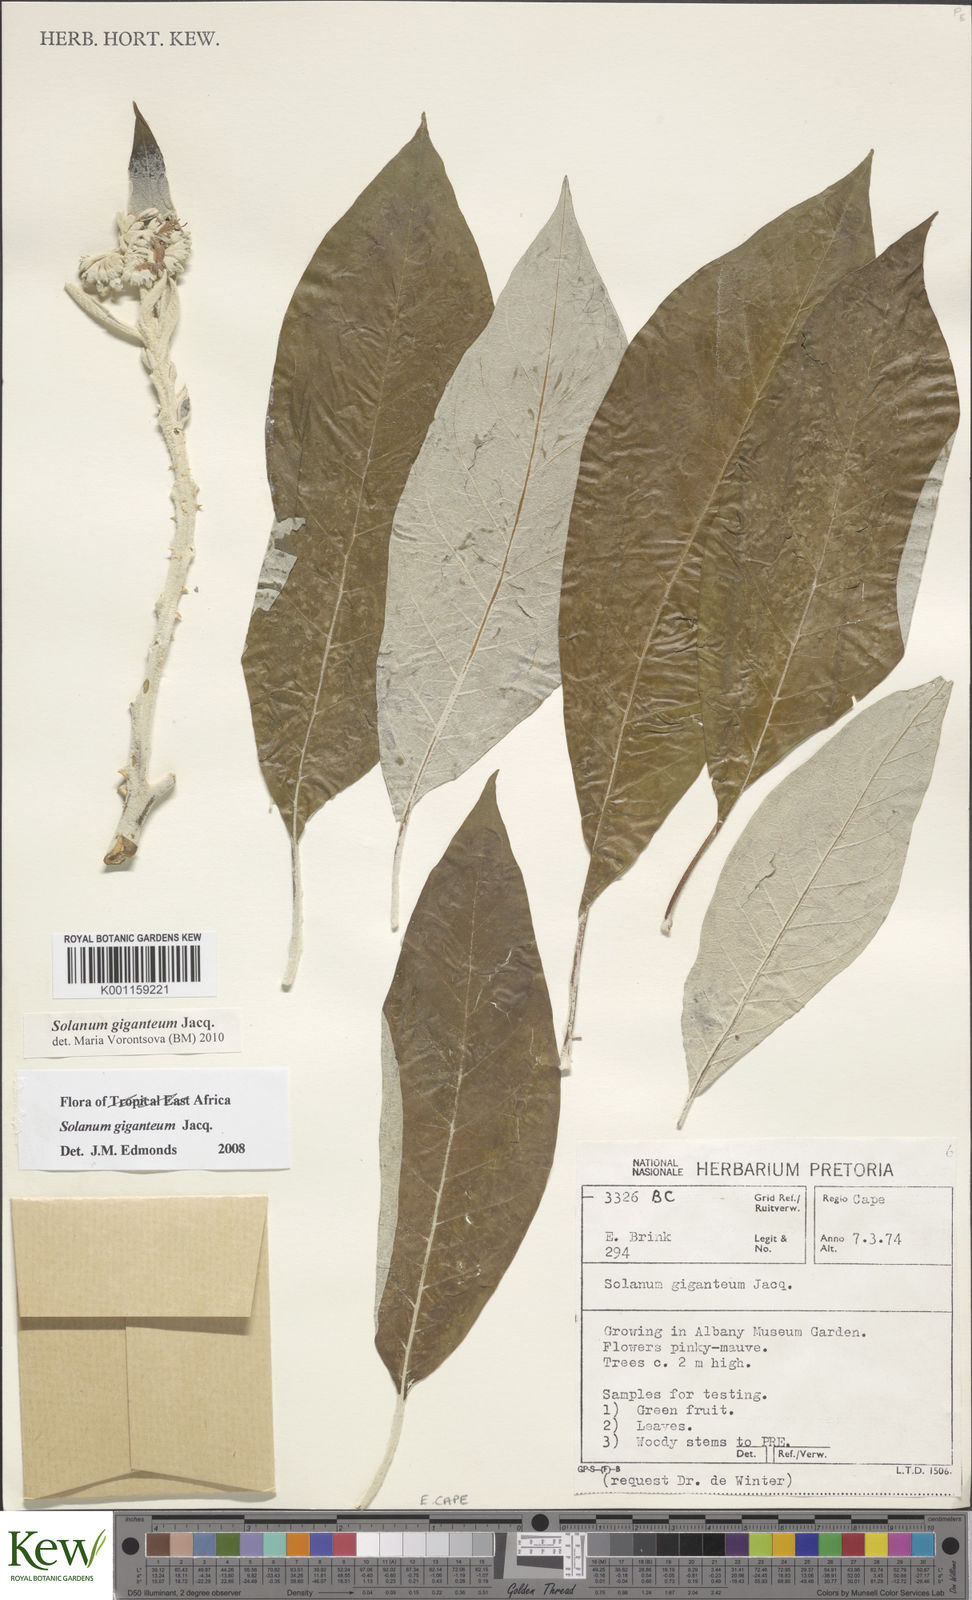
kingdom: Plantae
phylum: Tracheophyta
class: Magnoliopsida
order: Solanales
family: Solanaceae
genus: Solanum
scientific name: Solanum giganteum
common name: Healing-leaf-tree
